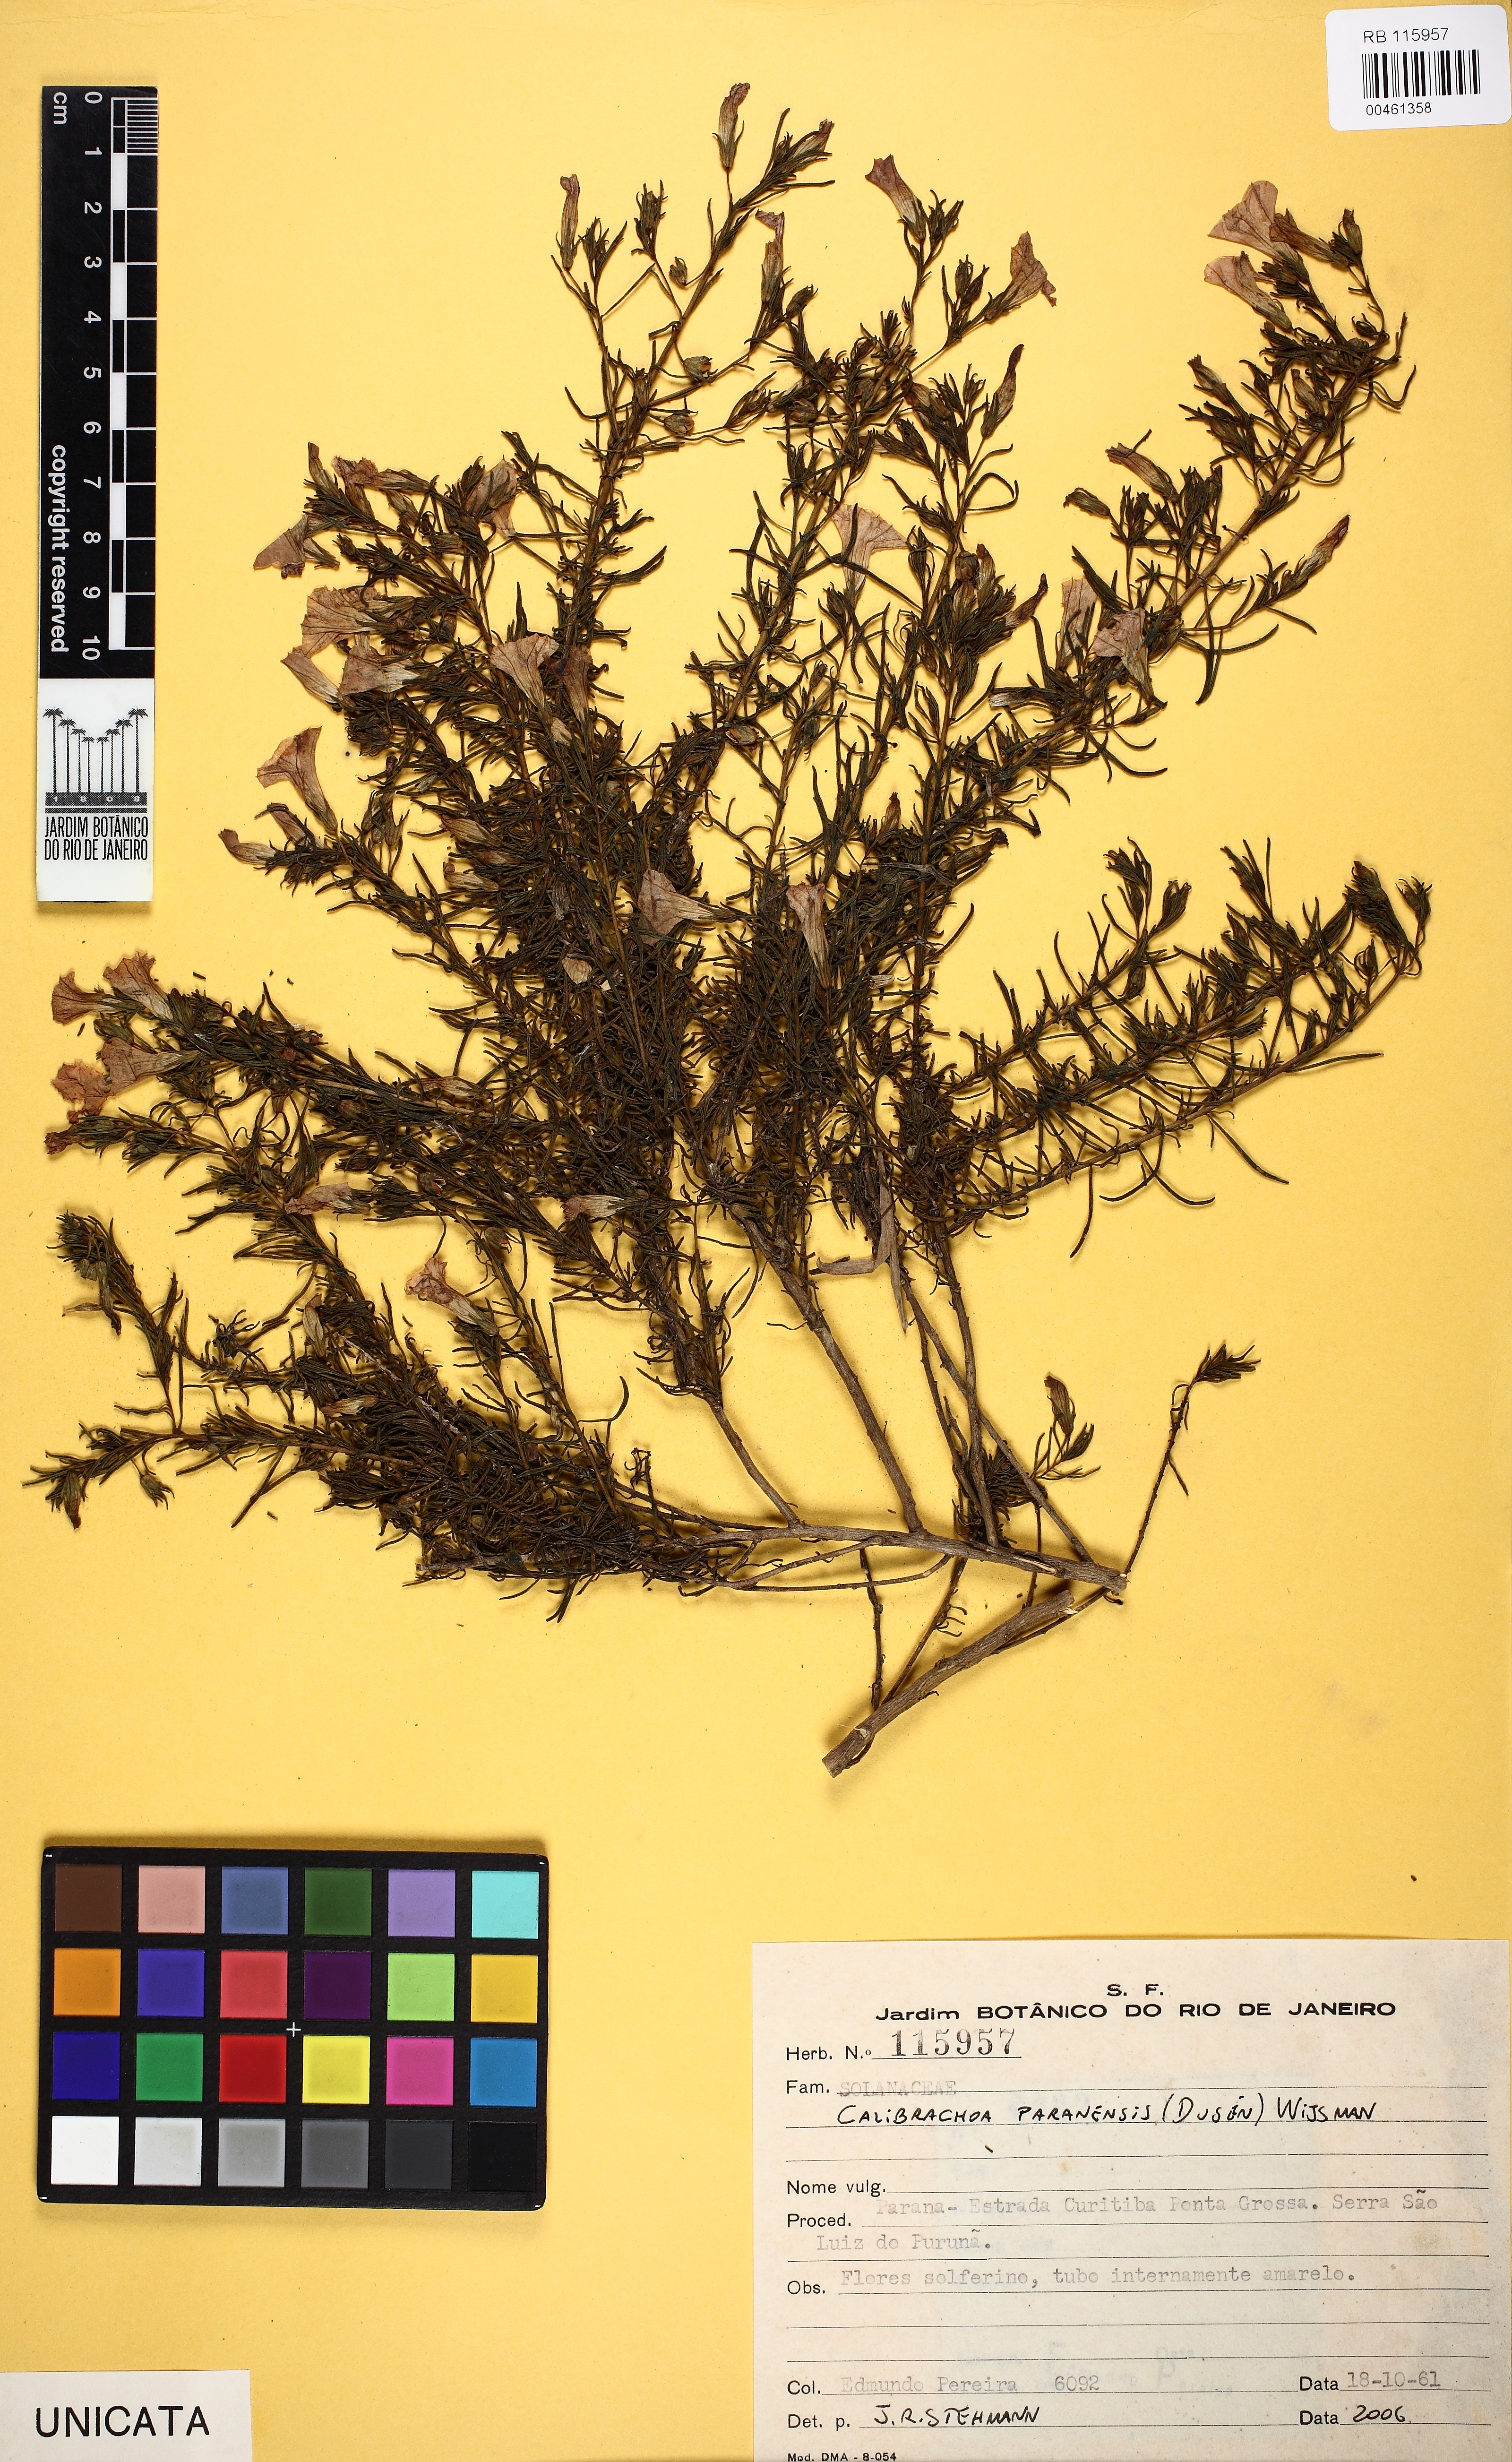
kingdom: Plantae
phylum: Tracheophyta
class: Magnoliopsida
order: Solanales
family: Solanaceae
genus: Calibrachoa
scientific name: Calibrachoa paranensis
